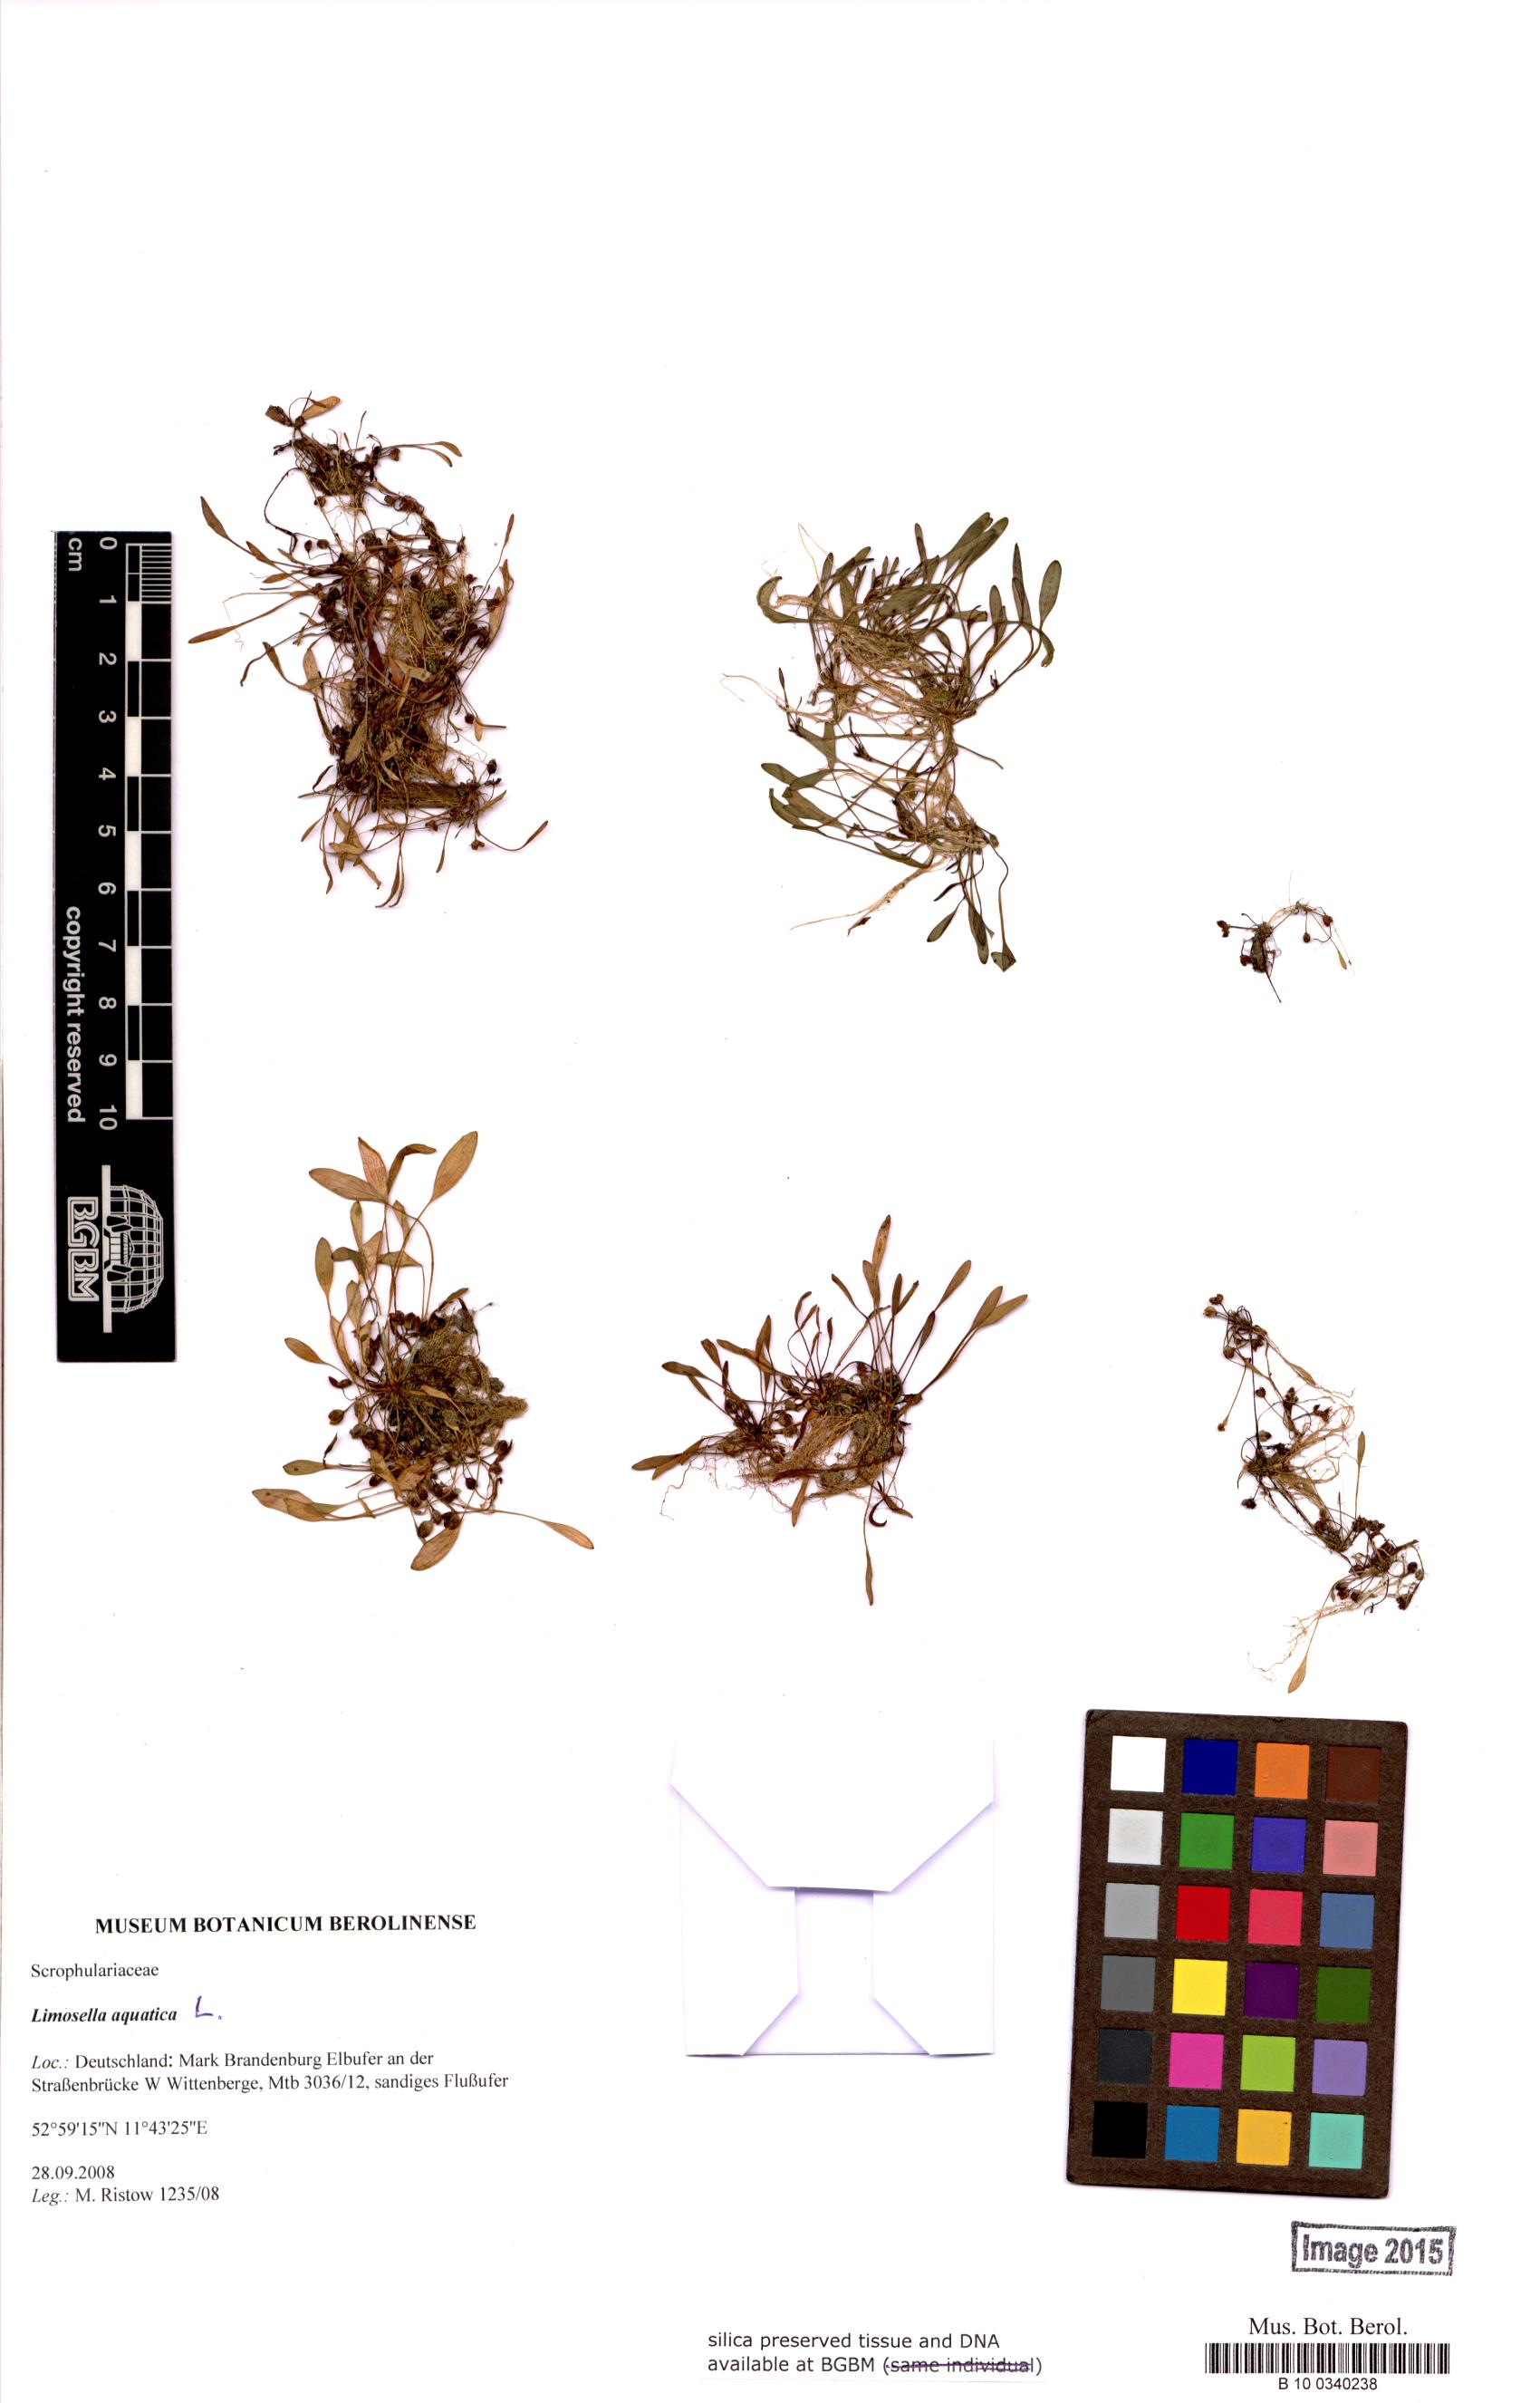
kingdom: Plantae
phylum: Tracheophyta
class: Magnoliopsida
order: Lamiales
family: Scrophulariaceae
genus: Limosella
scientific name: Limosella aquatica
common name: Mudwort
